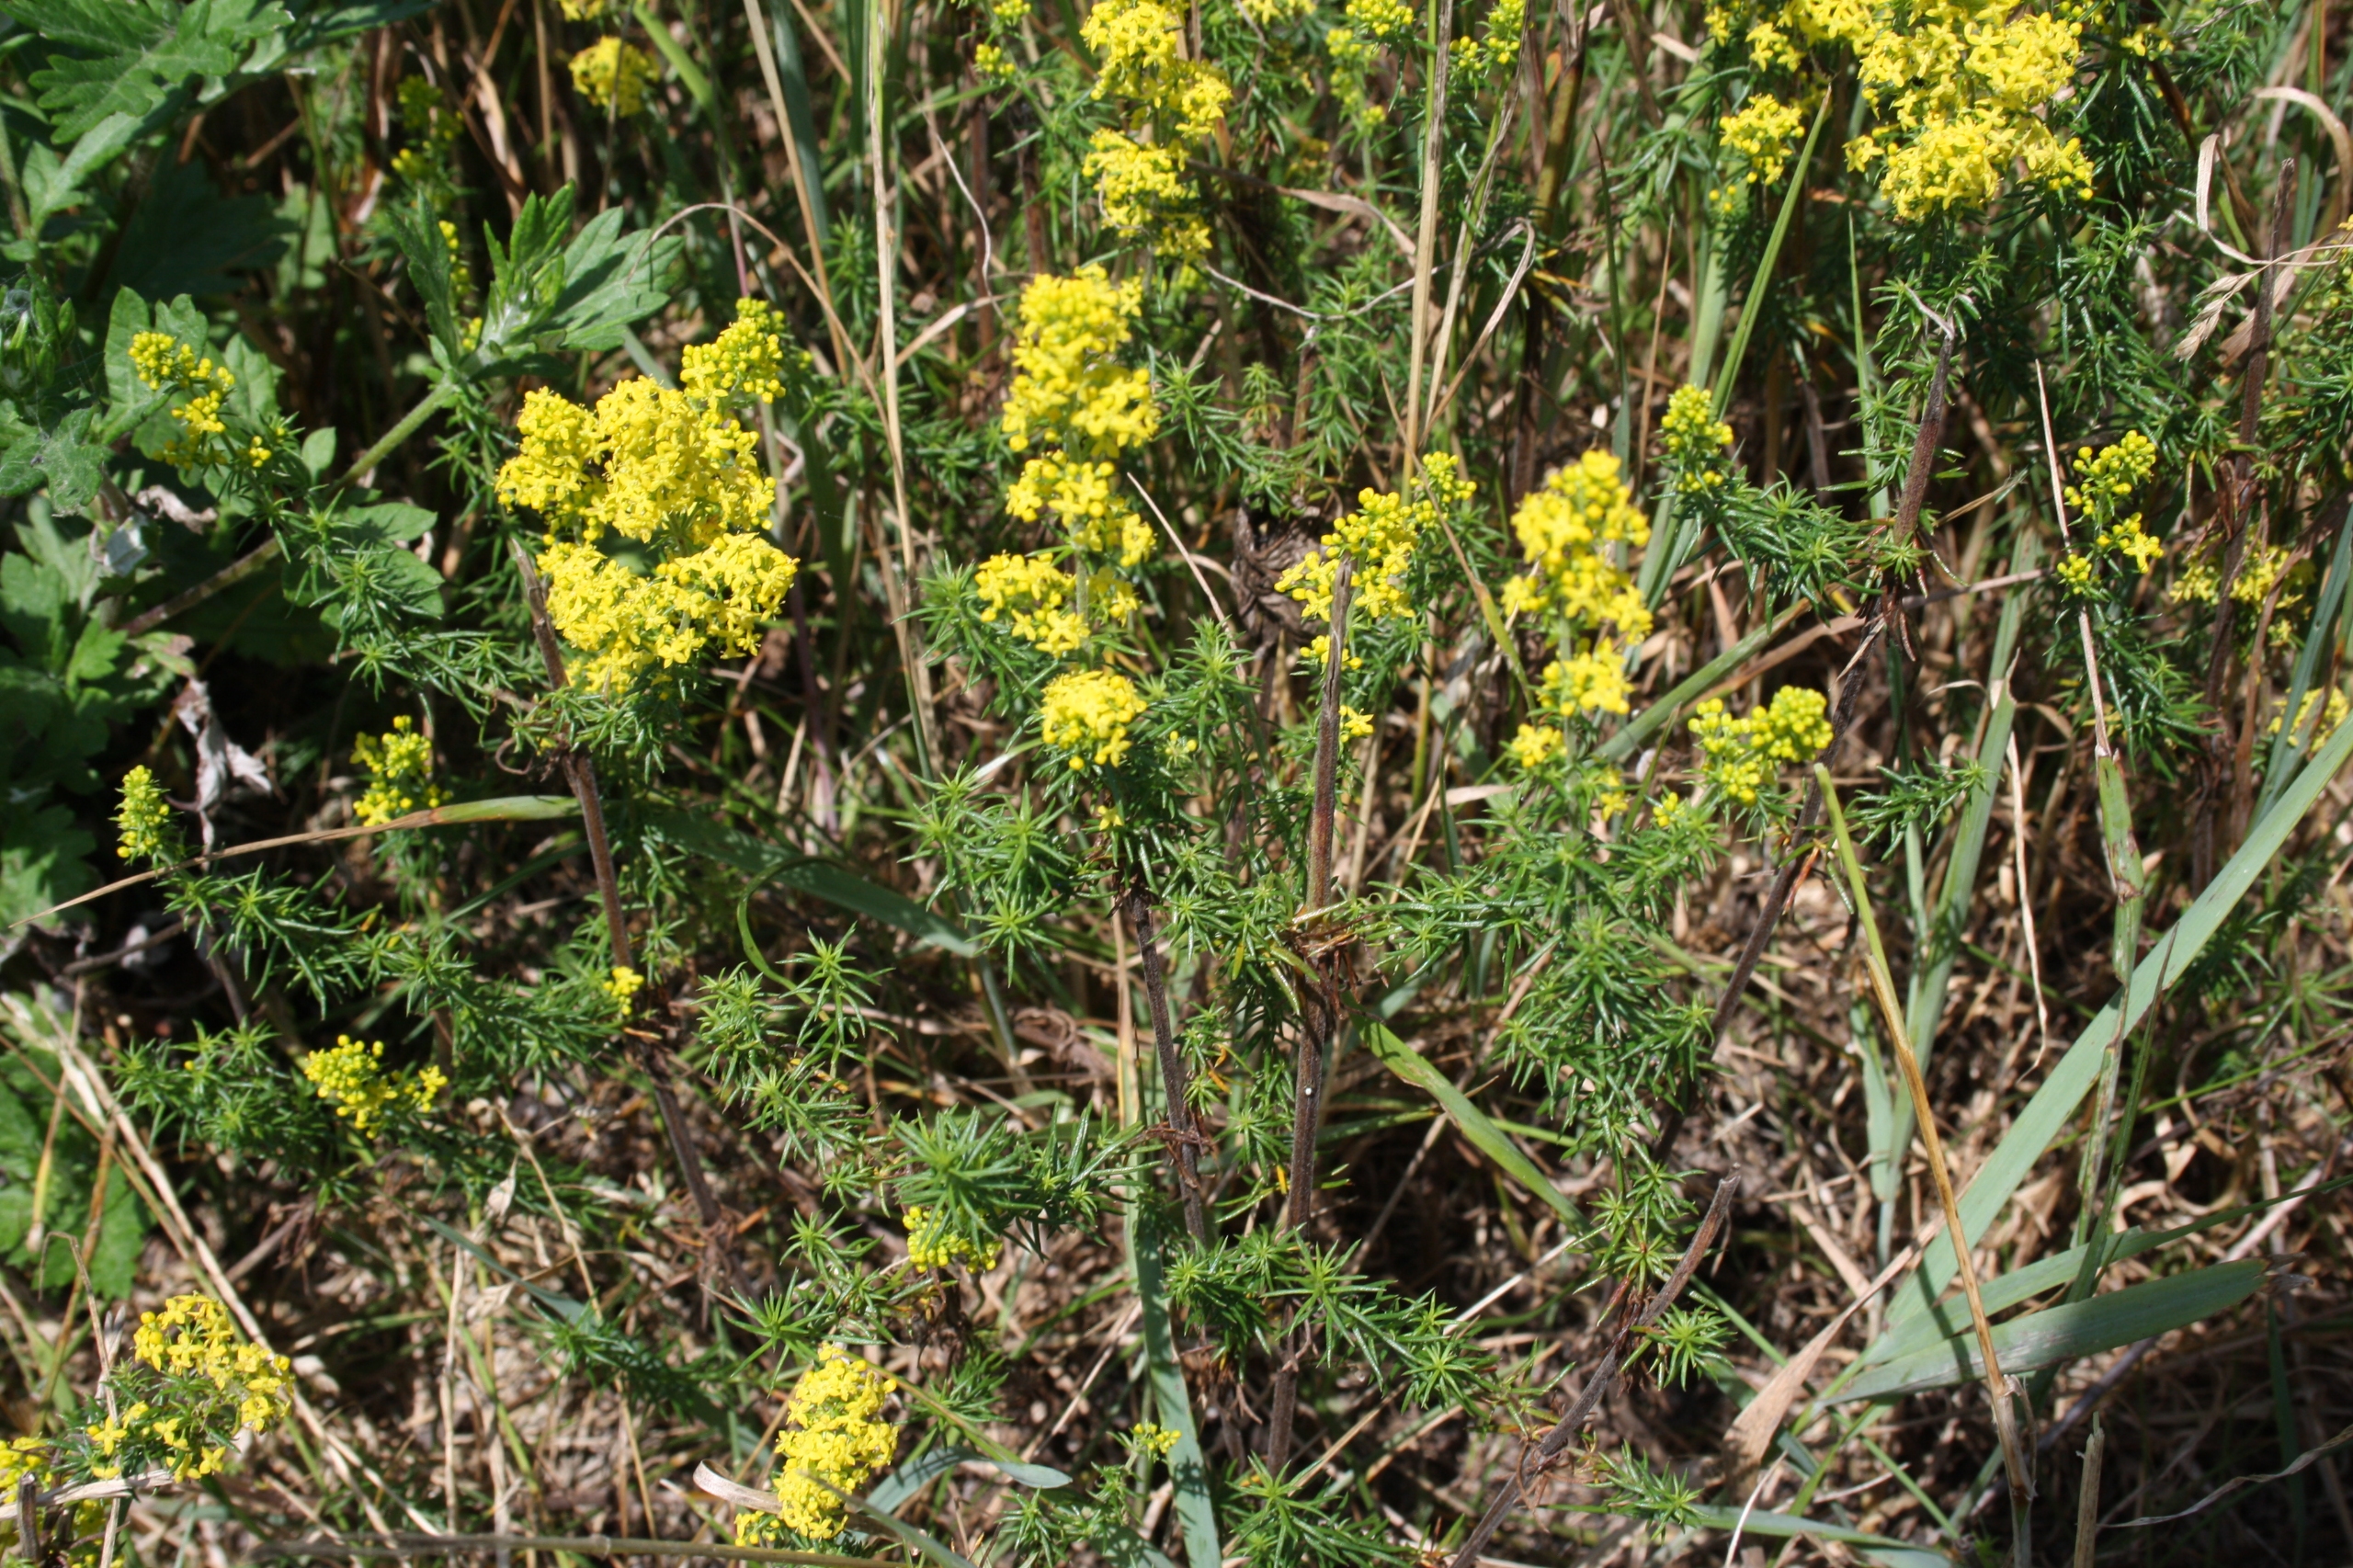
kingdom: Plantae
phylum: Tracheophyta
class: Magnoliopsida
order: Gentianales
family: Rubiaceae
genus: Galium
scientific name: Galium verum
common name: Gul snerre
